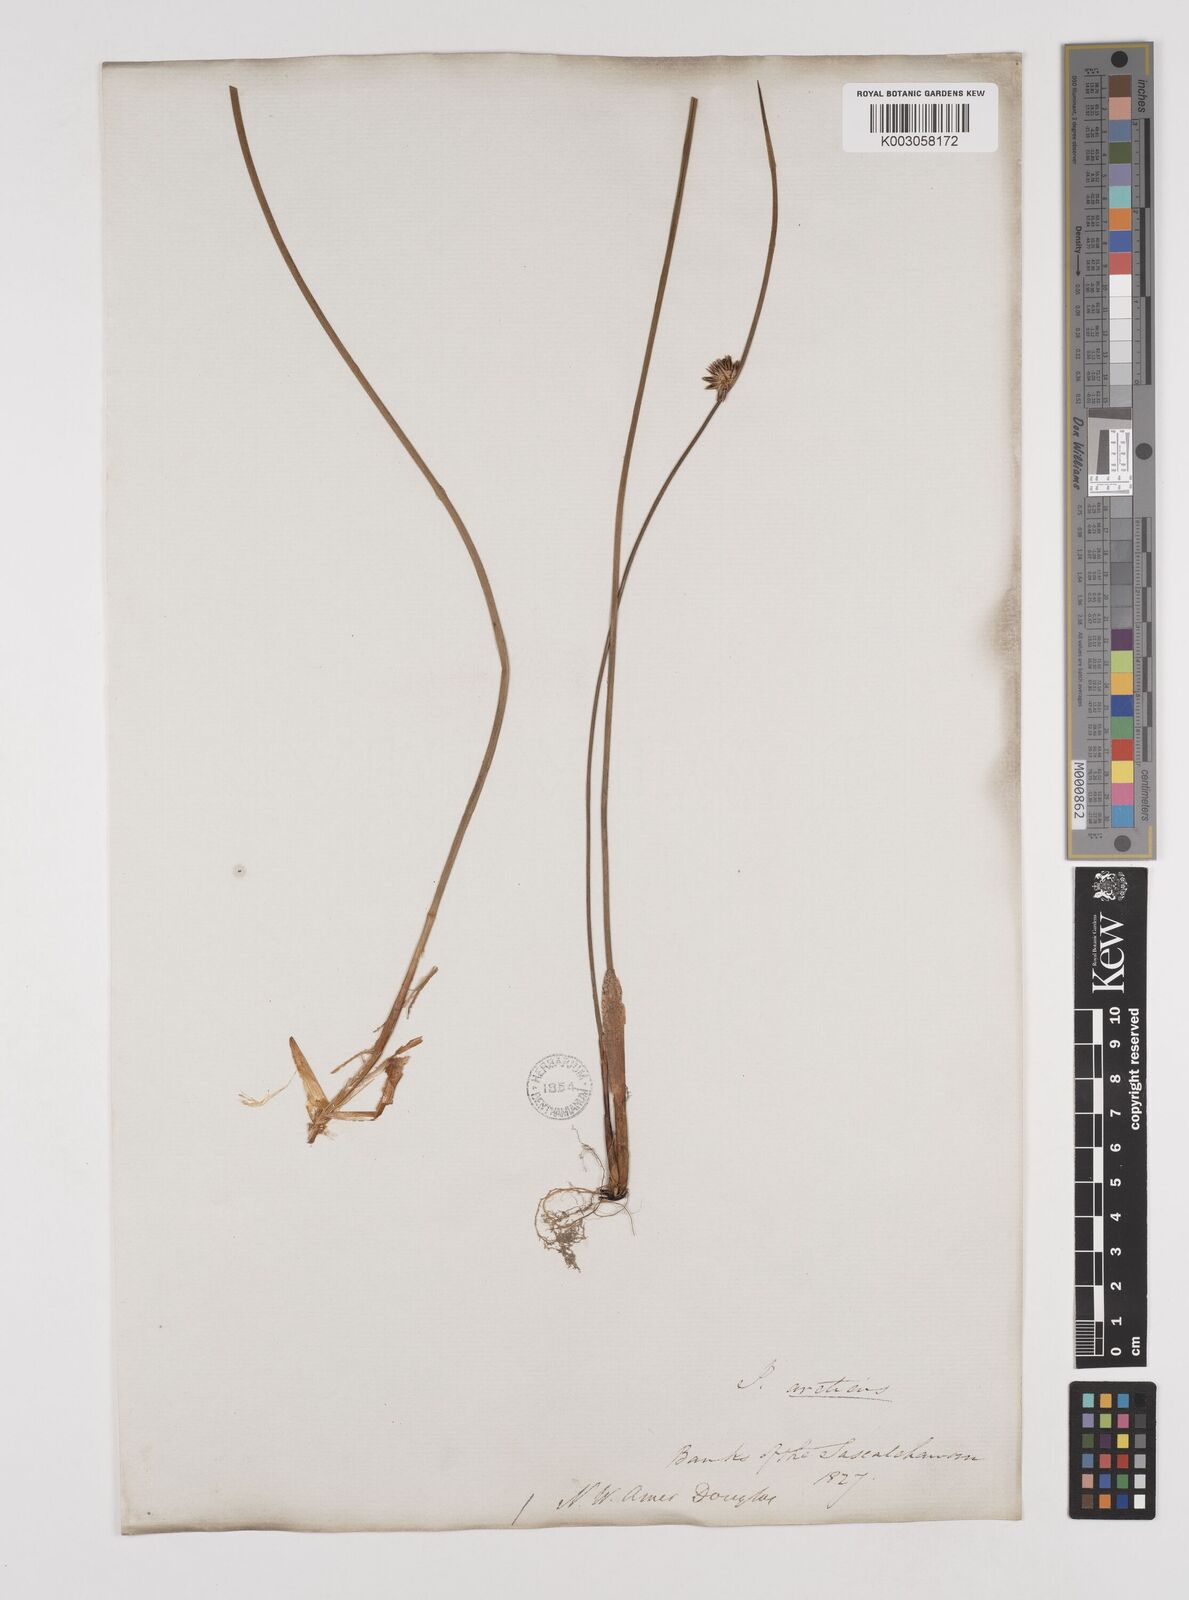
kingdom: Plantae
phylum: Tracheophyta
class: Liliopsida
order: Poales
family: Juncaceae
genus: Juncus
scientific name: Juncus
